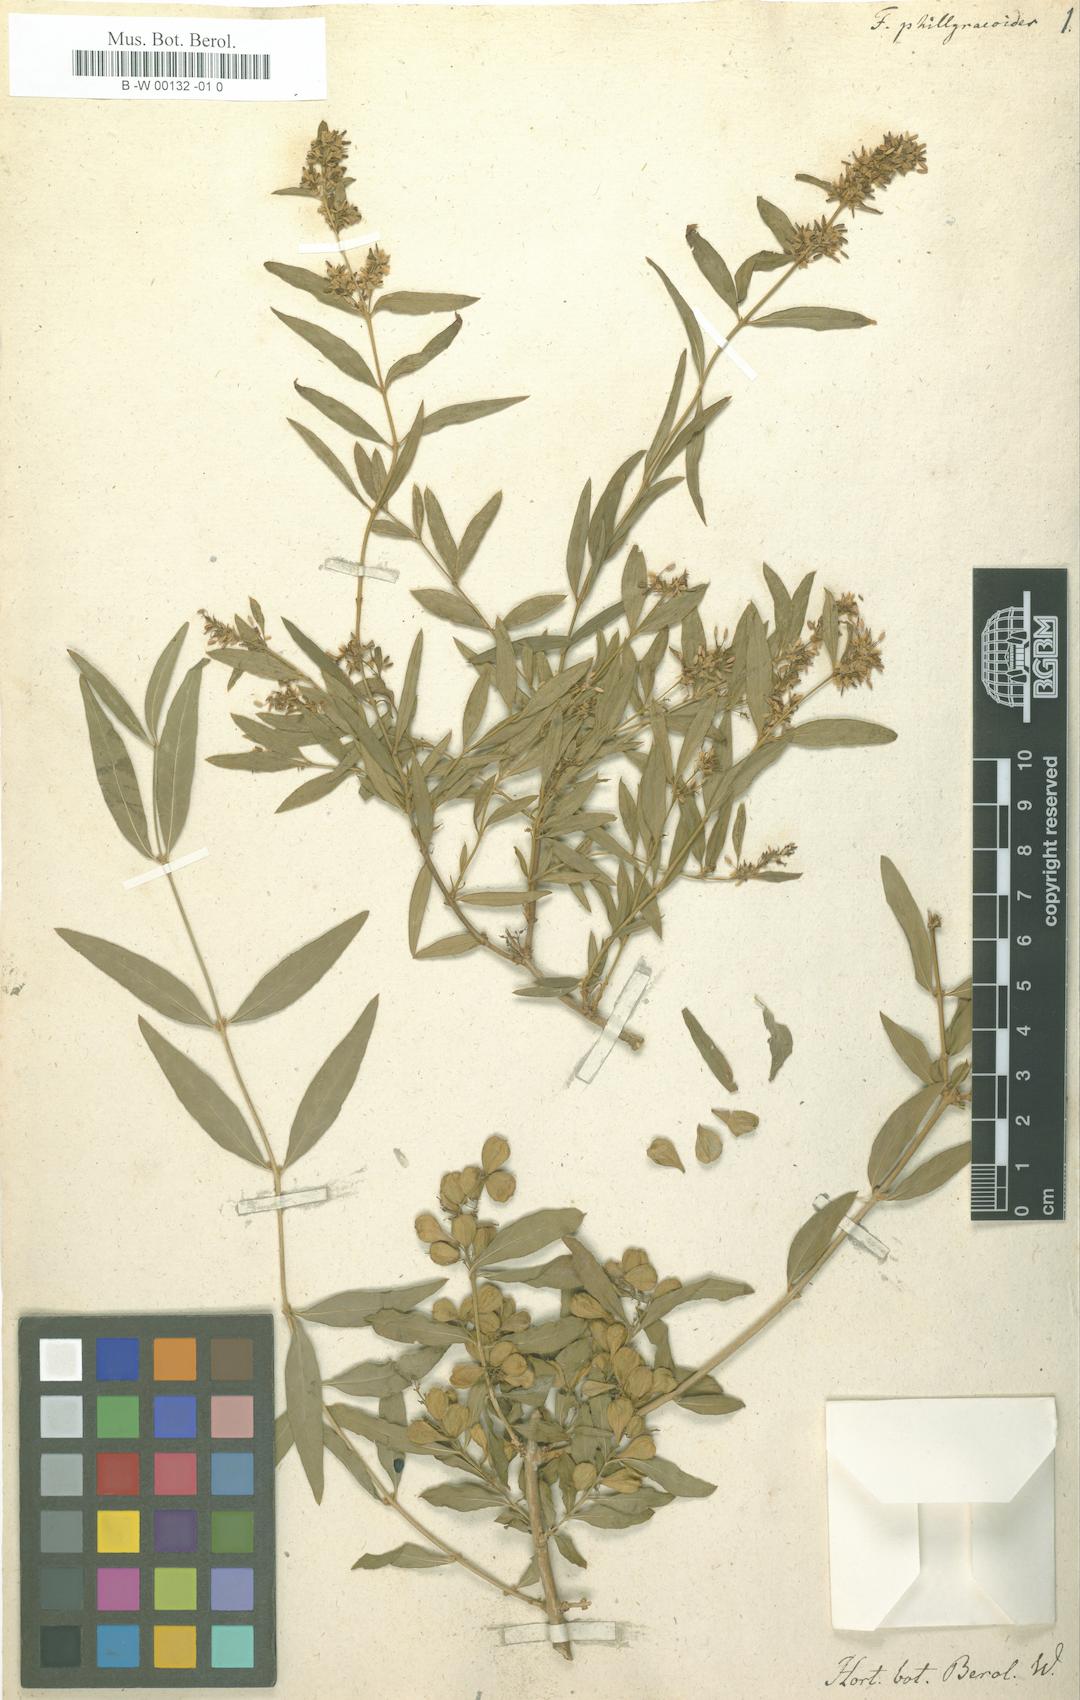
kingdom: Plantae
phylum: Tracheophyta
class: Magnoliopsida
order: Lamiales
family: Oleaceae
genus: Fontanesia
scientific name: Fontanesia philliraeoides
